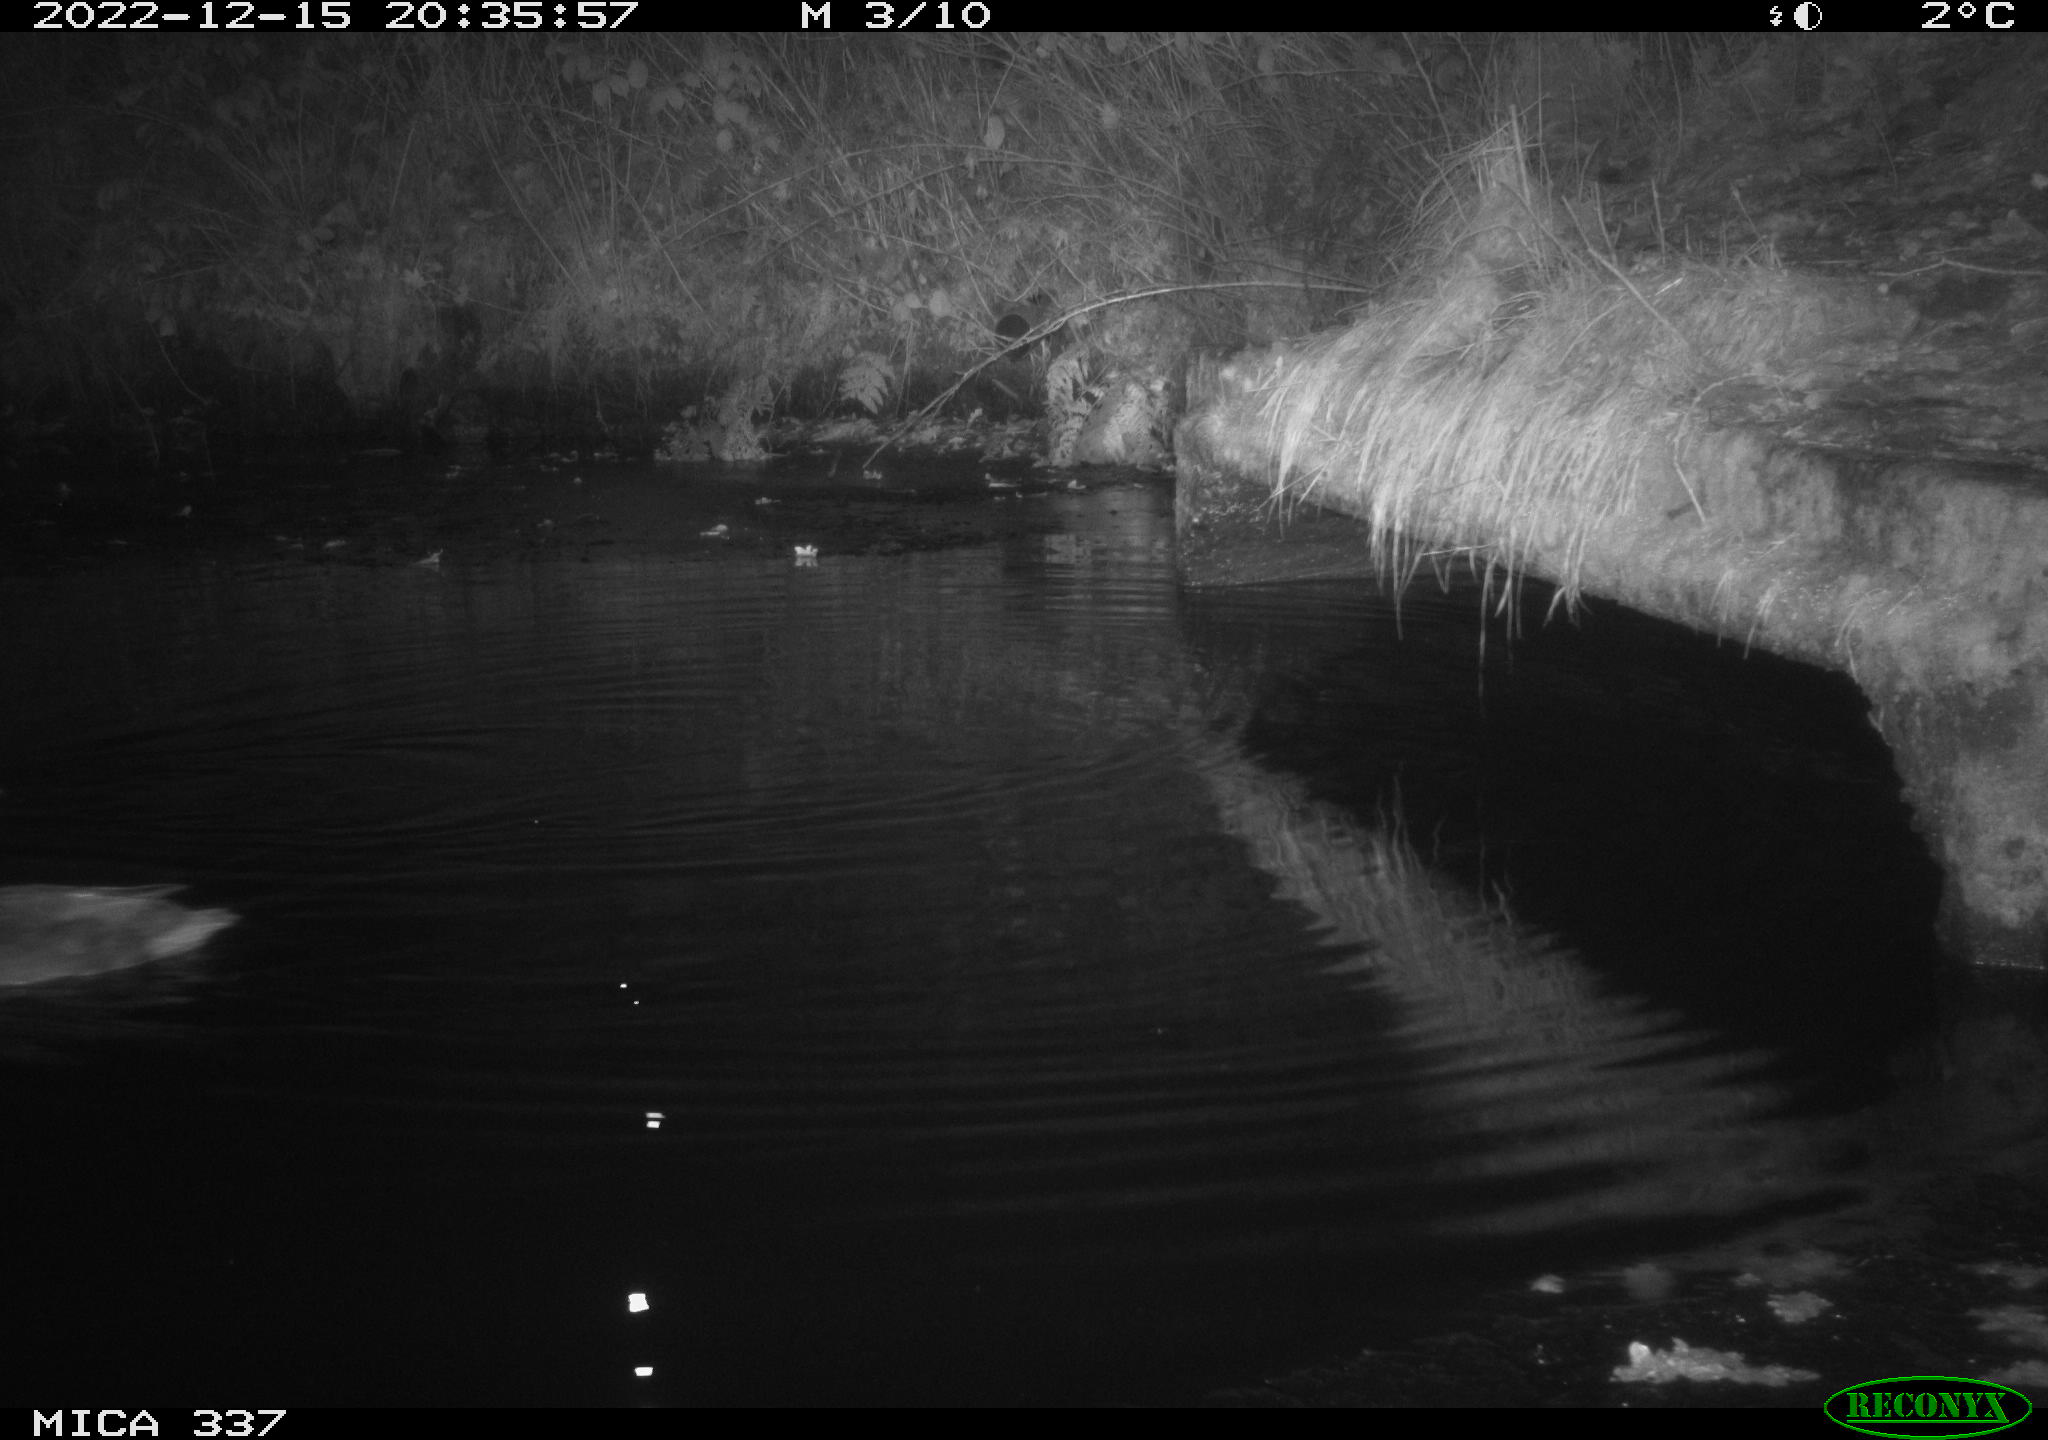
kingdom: Animalia
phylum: Chordata
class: Aves
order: Anseriformes
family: Anatidae
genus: Anas
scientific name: Anas
